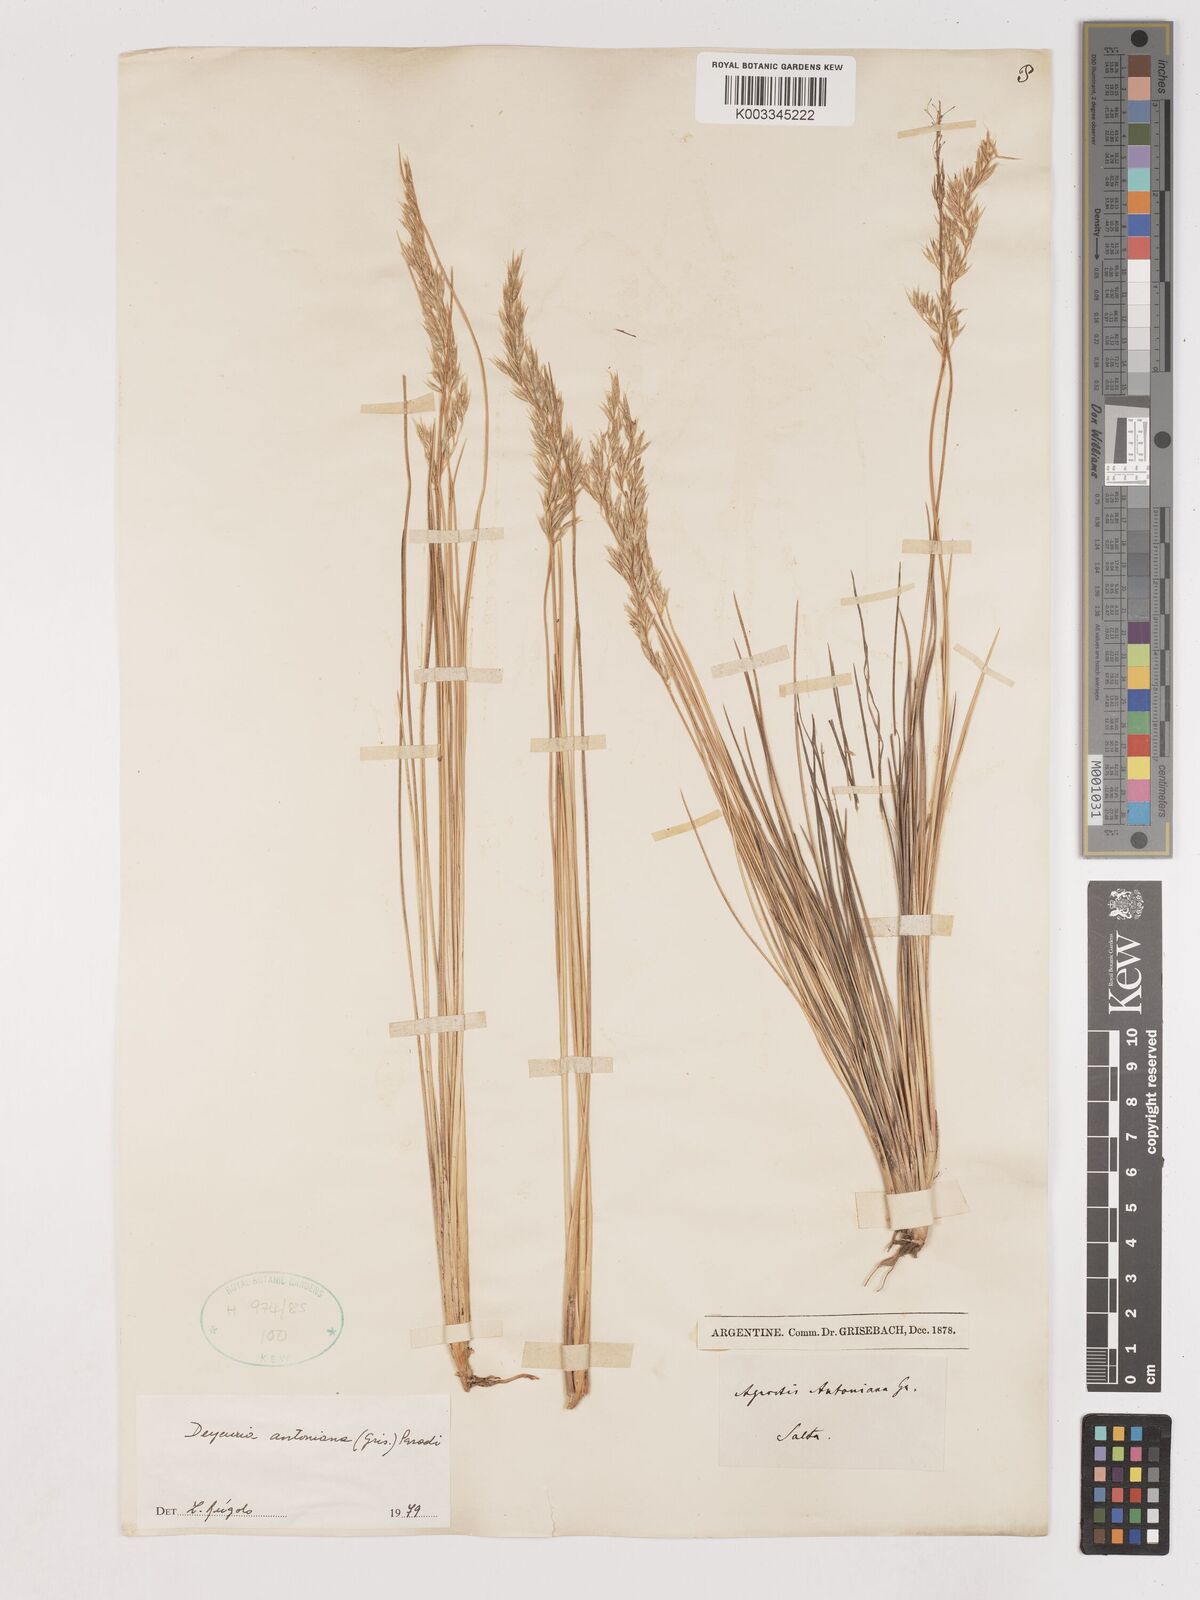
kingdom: Plantae
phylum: Tracheophyta
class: Liliopsida
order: Poales
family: Poaceae
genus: Cinnagrostis
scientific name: Cinnagrostis rigida
